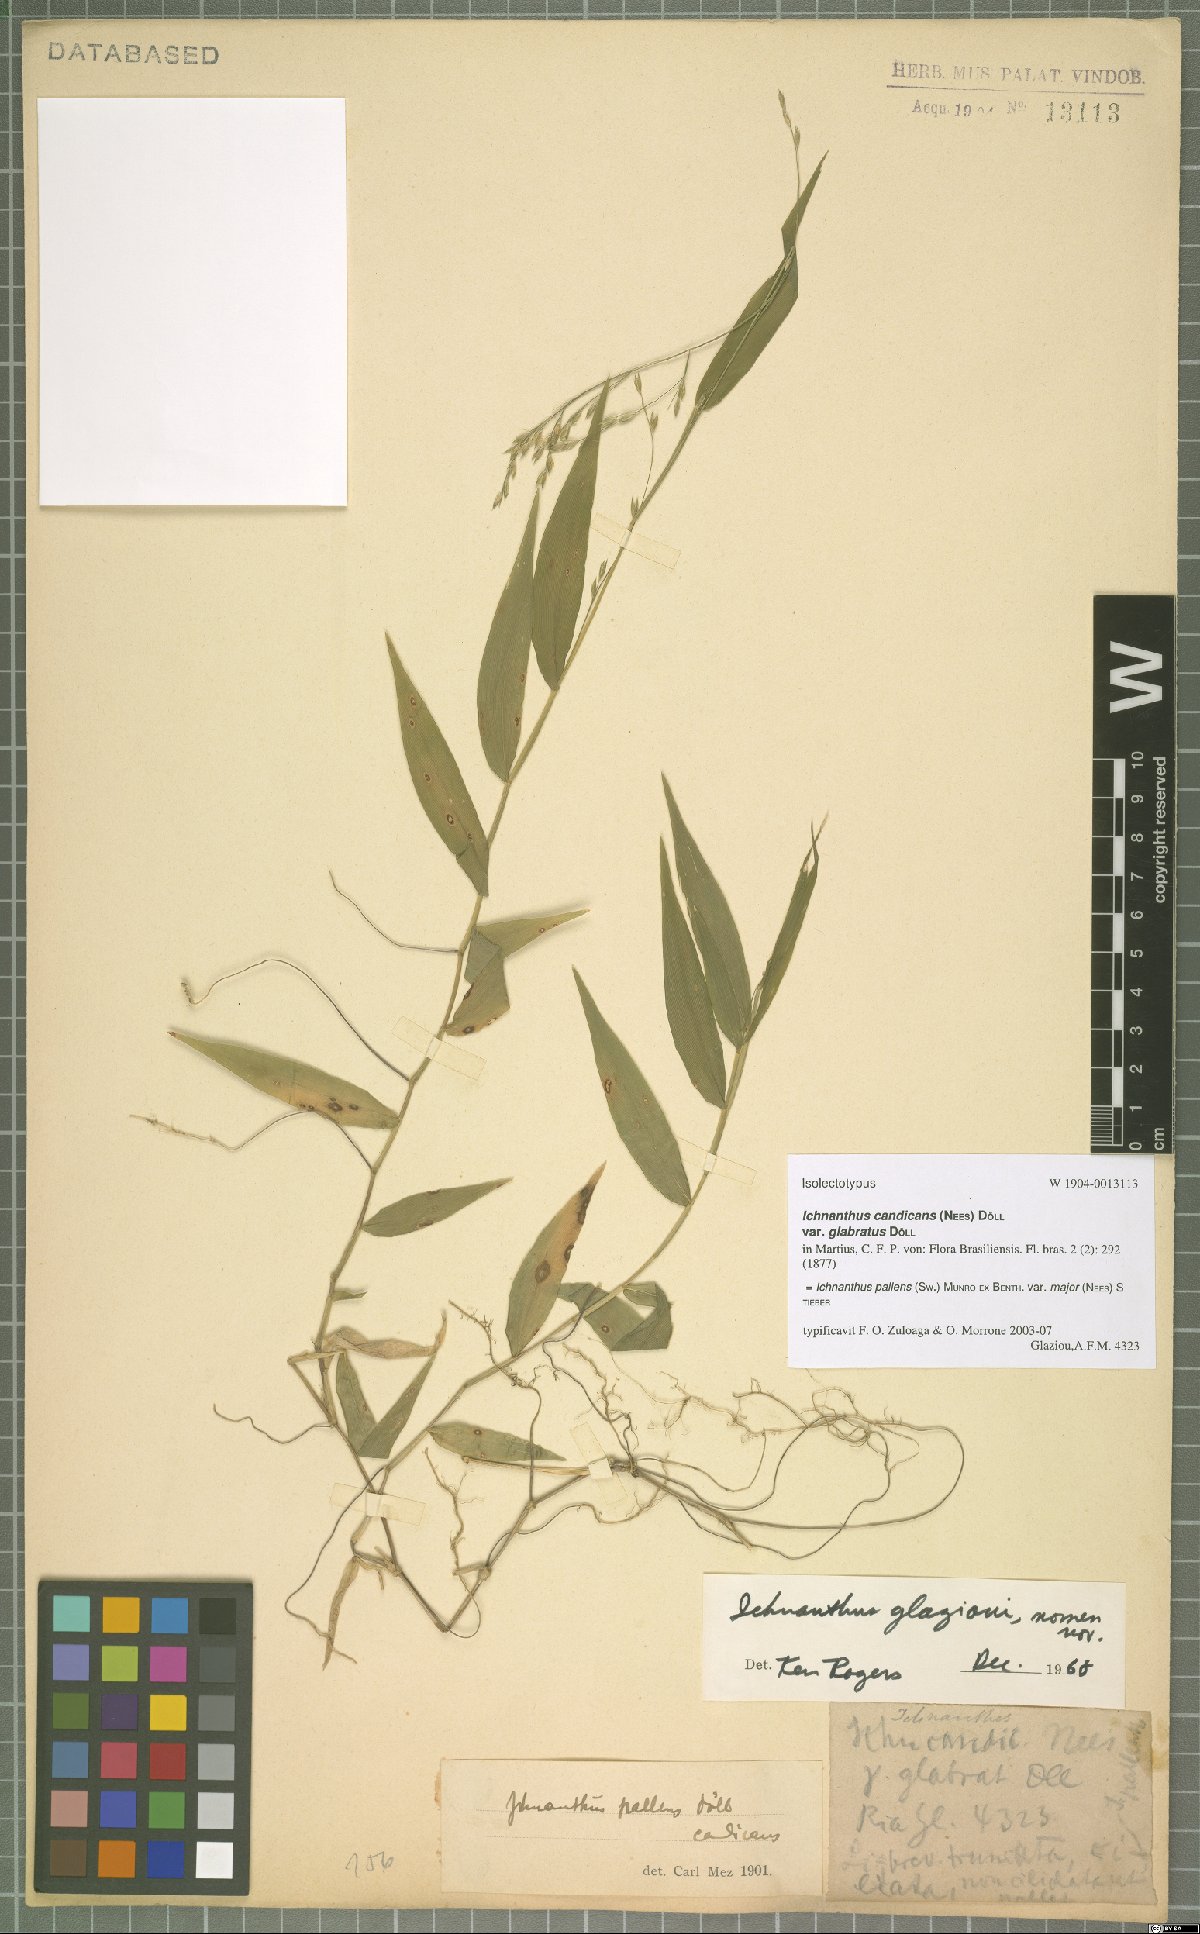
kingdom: Plantae
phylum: Tracheophyta
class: Liliopsida
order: Poales
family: Poaceae
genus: Ichnanthus
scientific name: Ichnanthus pallens
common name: Water grass
